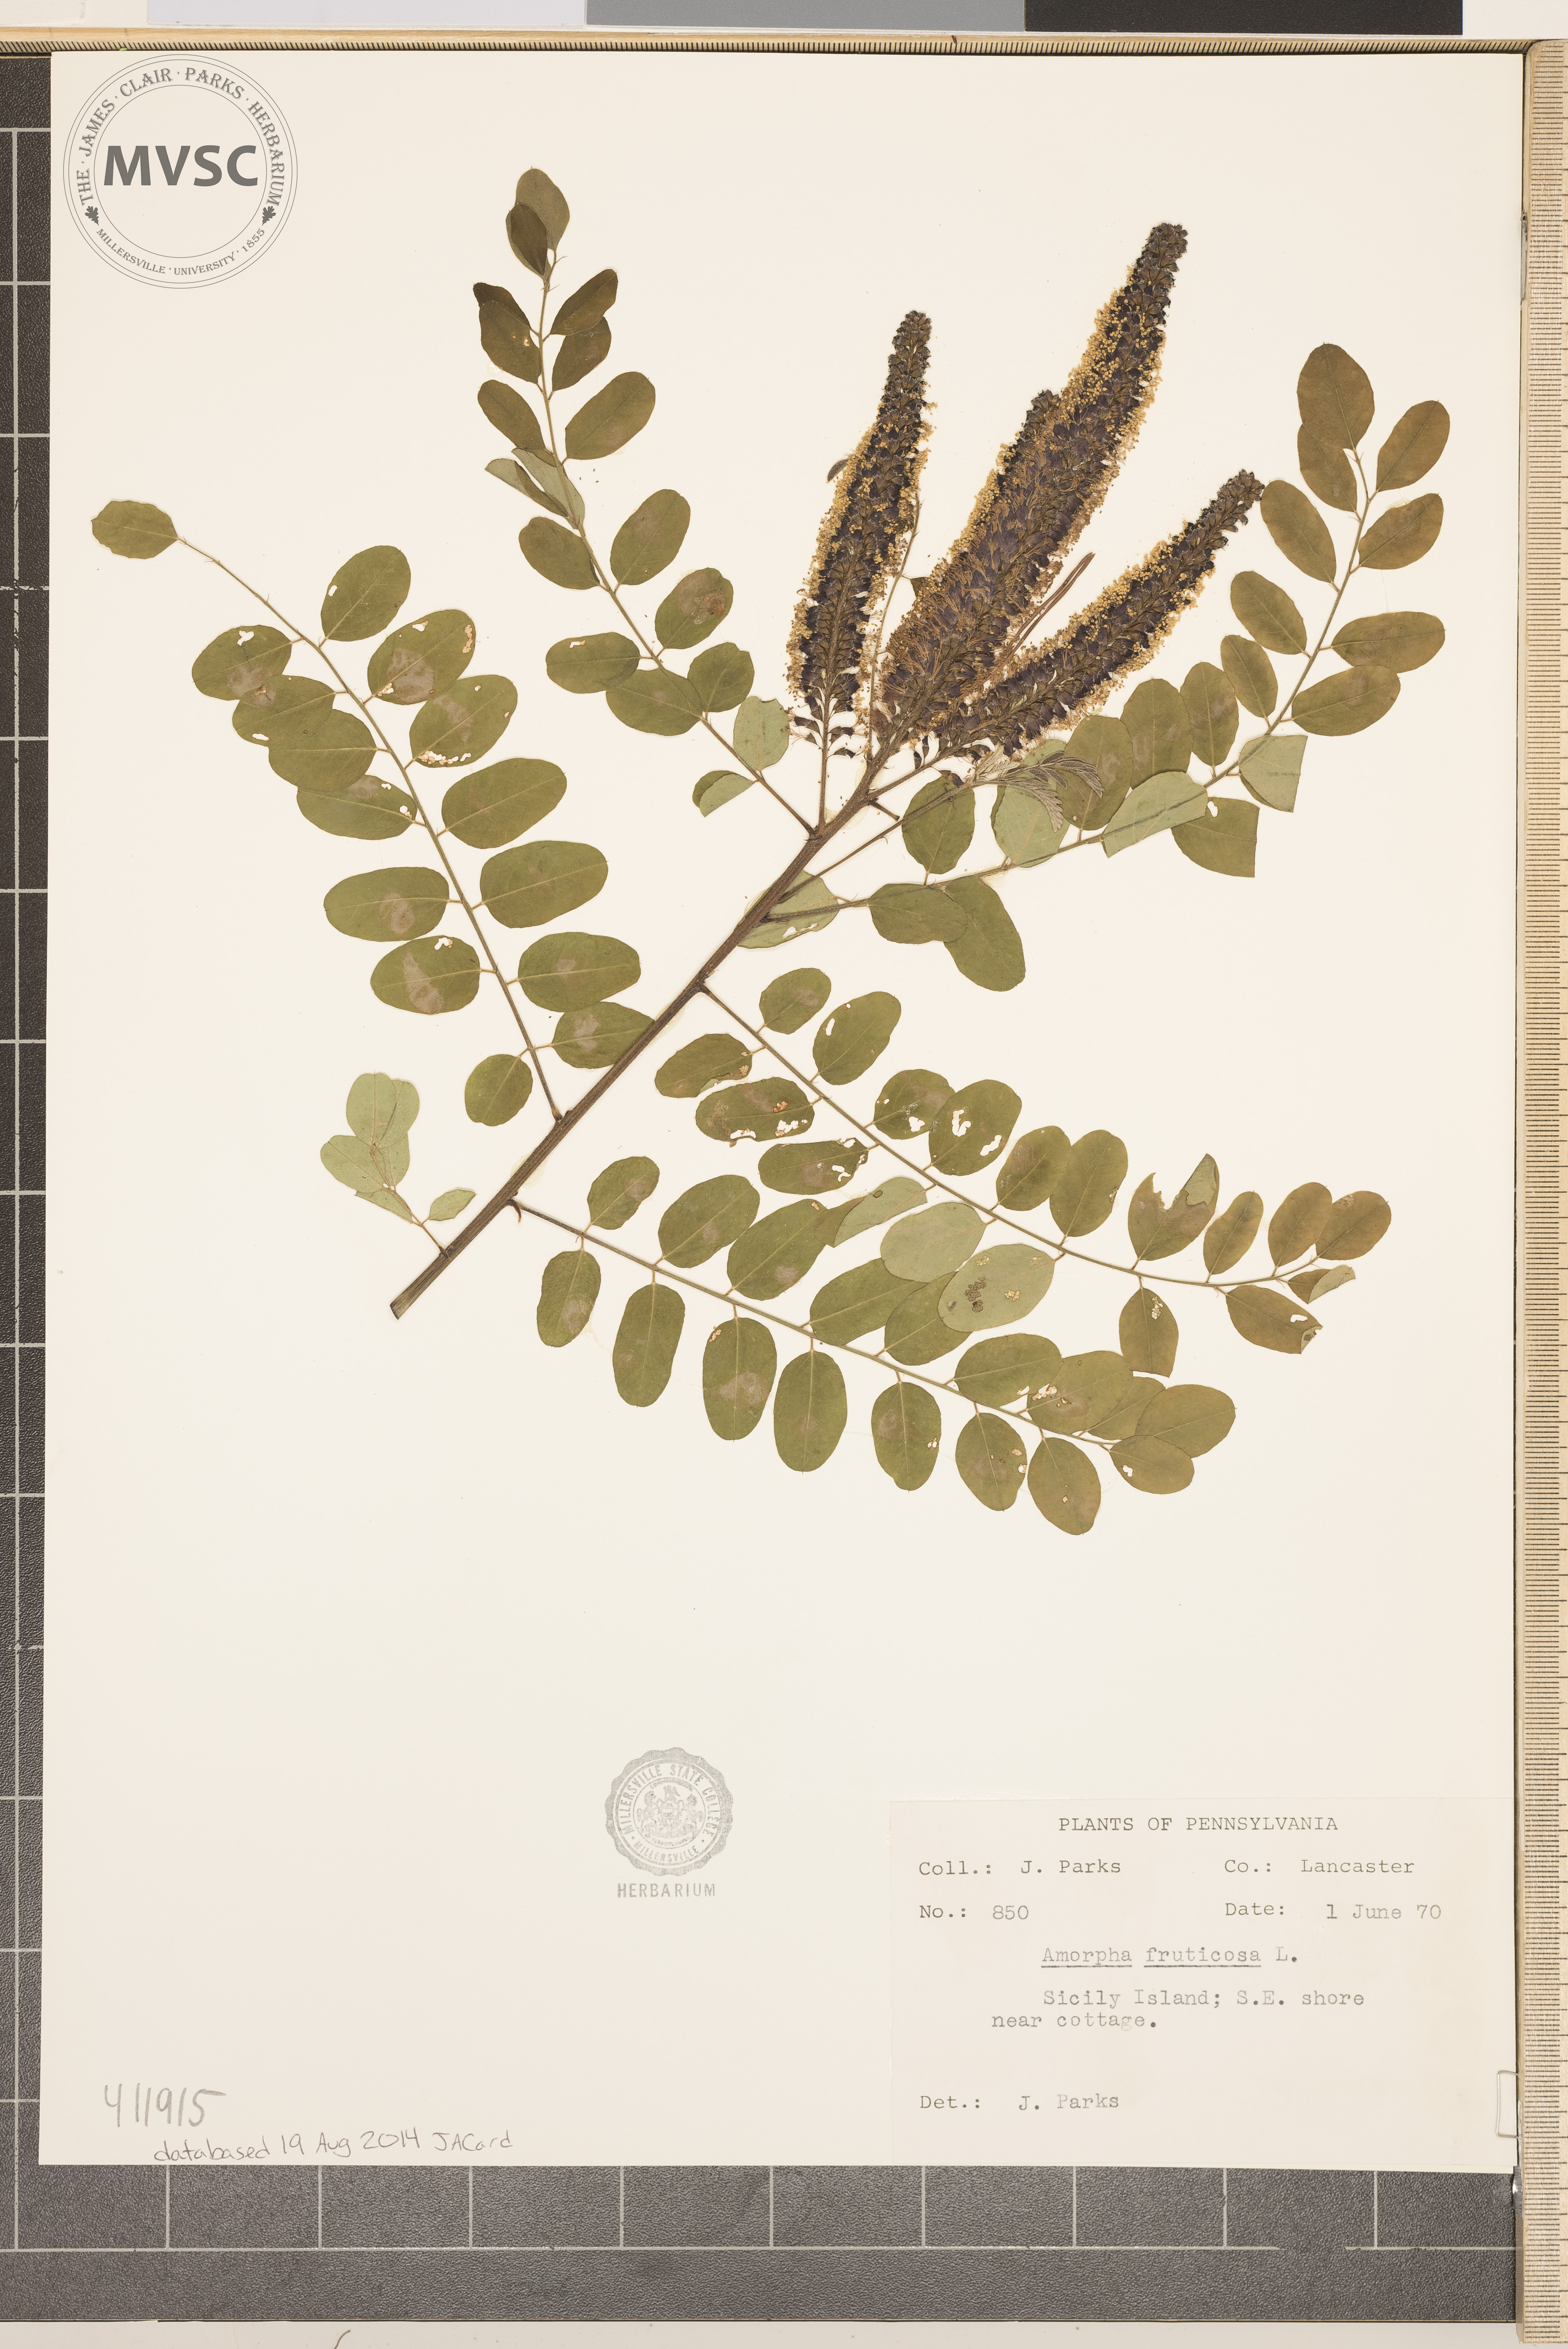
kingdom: Plantae
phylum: Tracheophyta
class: Magnoliopsida
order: Fabales
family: Fabaceae
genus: Amorpha
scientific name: Amorpha fruticosa
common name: False indigo
